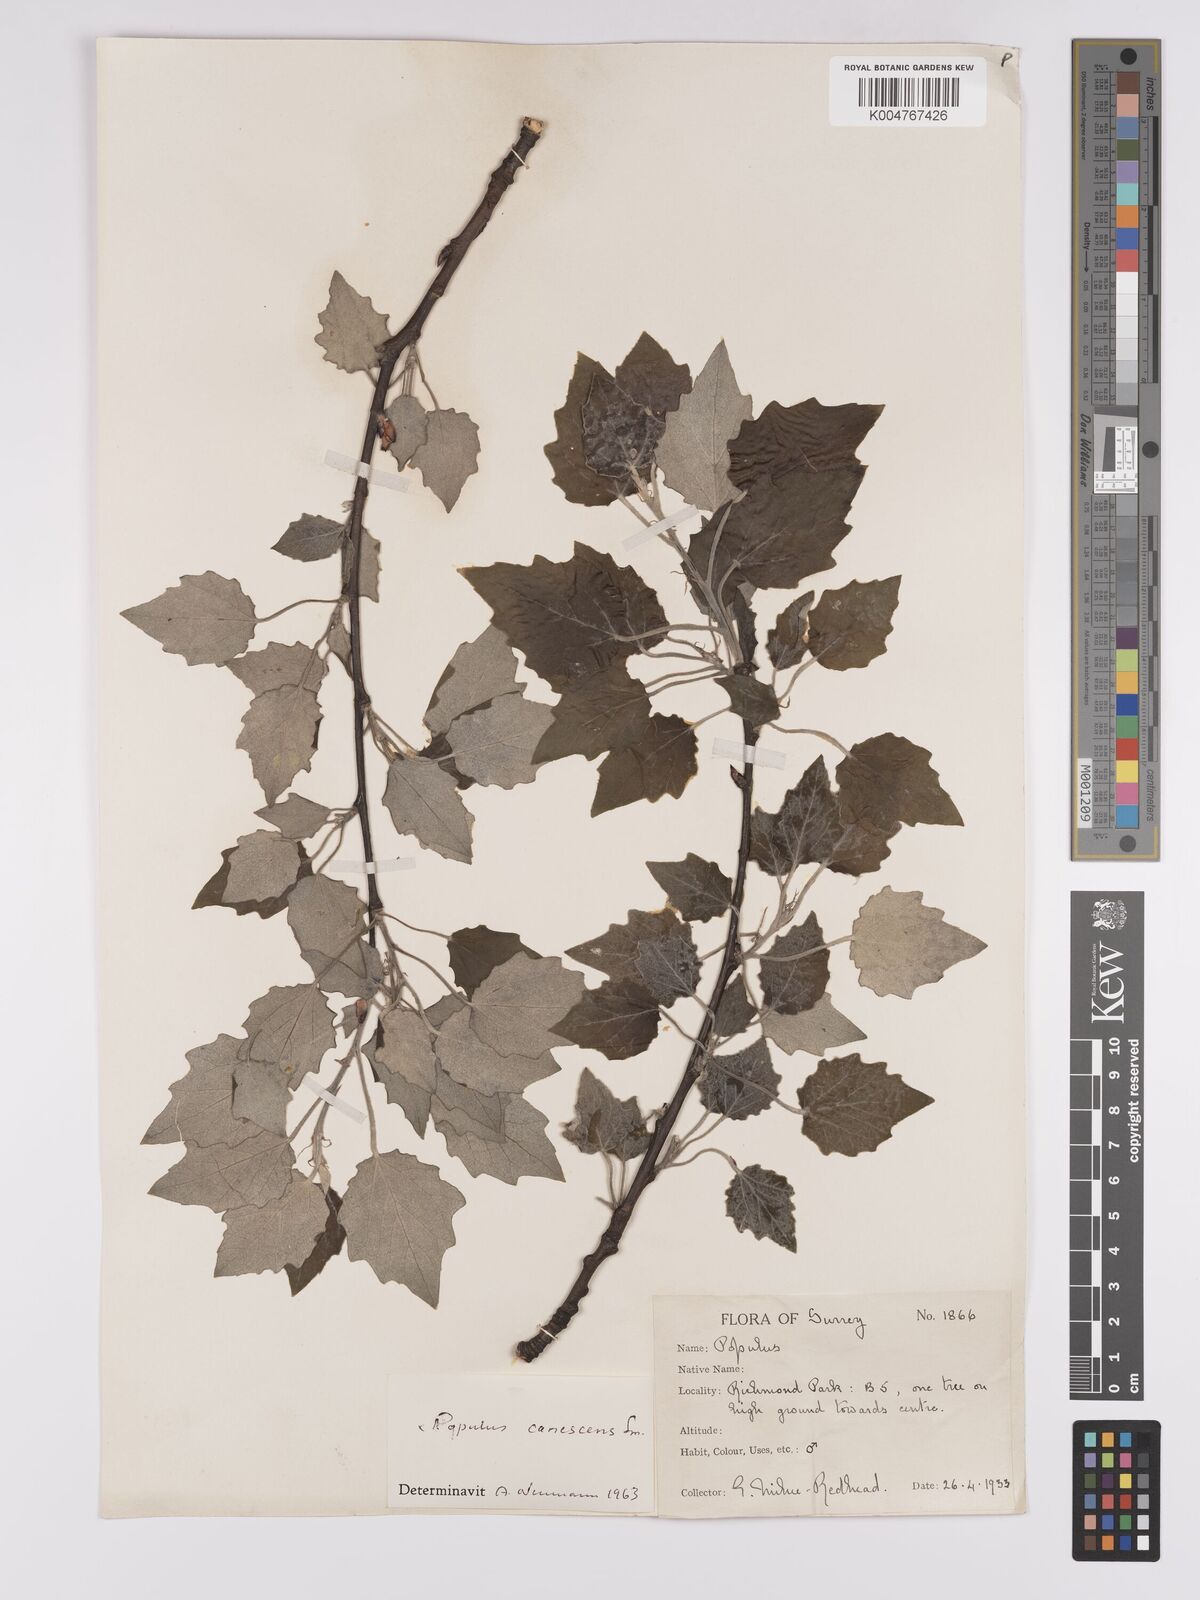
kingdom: Plantae
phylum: Tracheophyta
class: Magnoliopsida
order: Malpighiales
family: Salicaceae
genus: Populus
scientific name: Populus canescens
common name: Gray poplar
